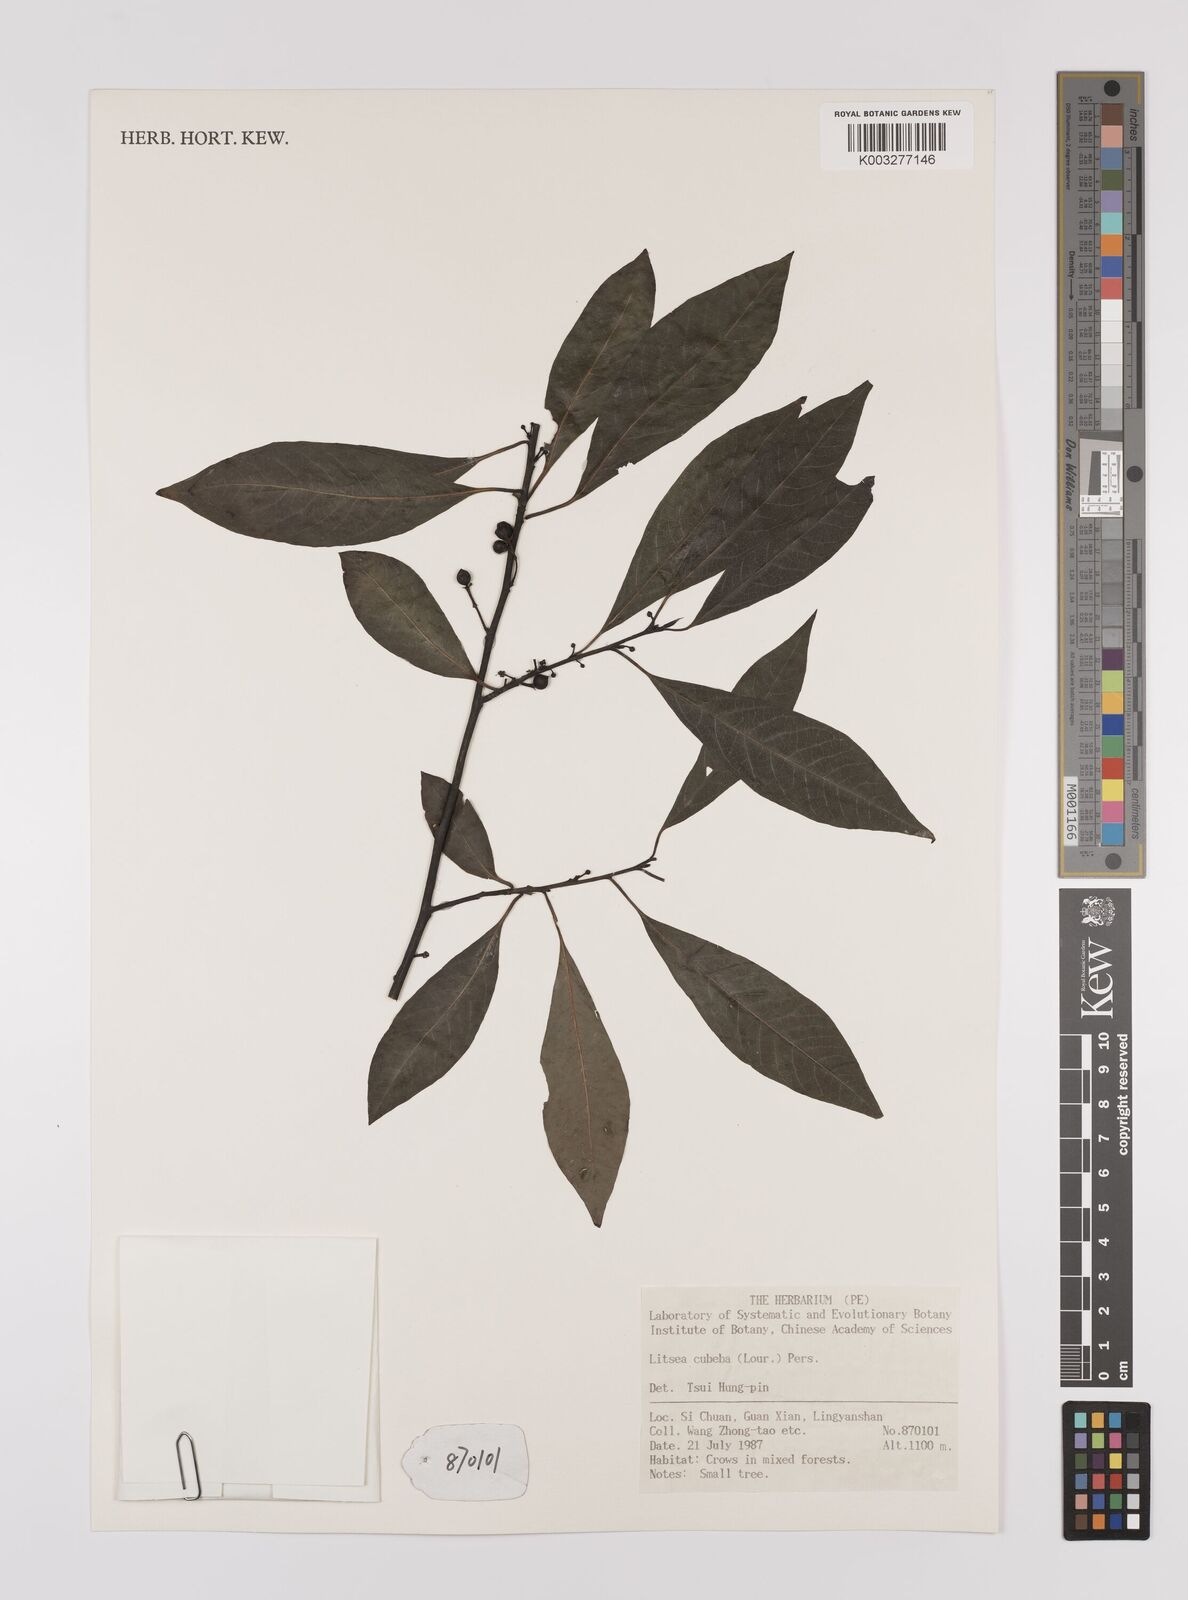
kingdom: Plantae
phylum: Tracheophyta
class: Magnoliopsida
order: Laurales
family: Lauraceae
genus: Litsea
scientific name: Litsea cubeba
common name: Mountain-pepper
